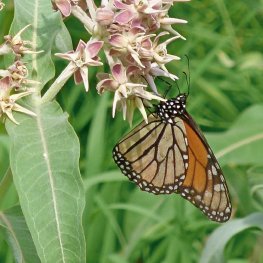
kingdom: Animalia
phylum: Arthropoda
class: Insecta
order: Lepidoptera
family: Nymphalidae
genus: Danaus
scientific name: Danaus plexippus
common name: Monarch
